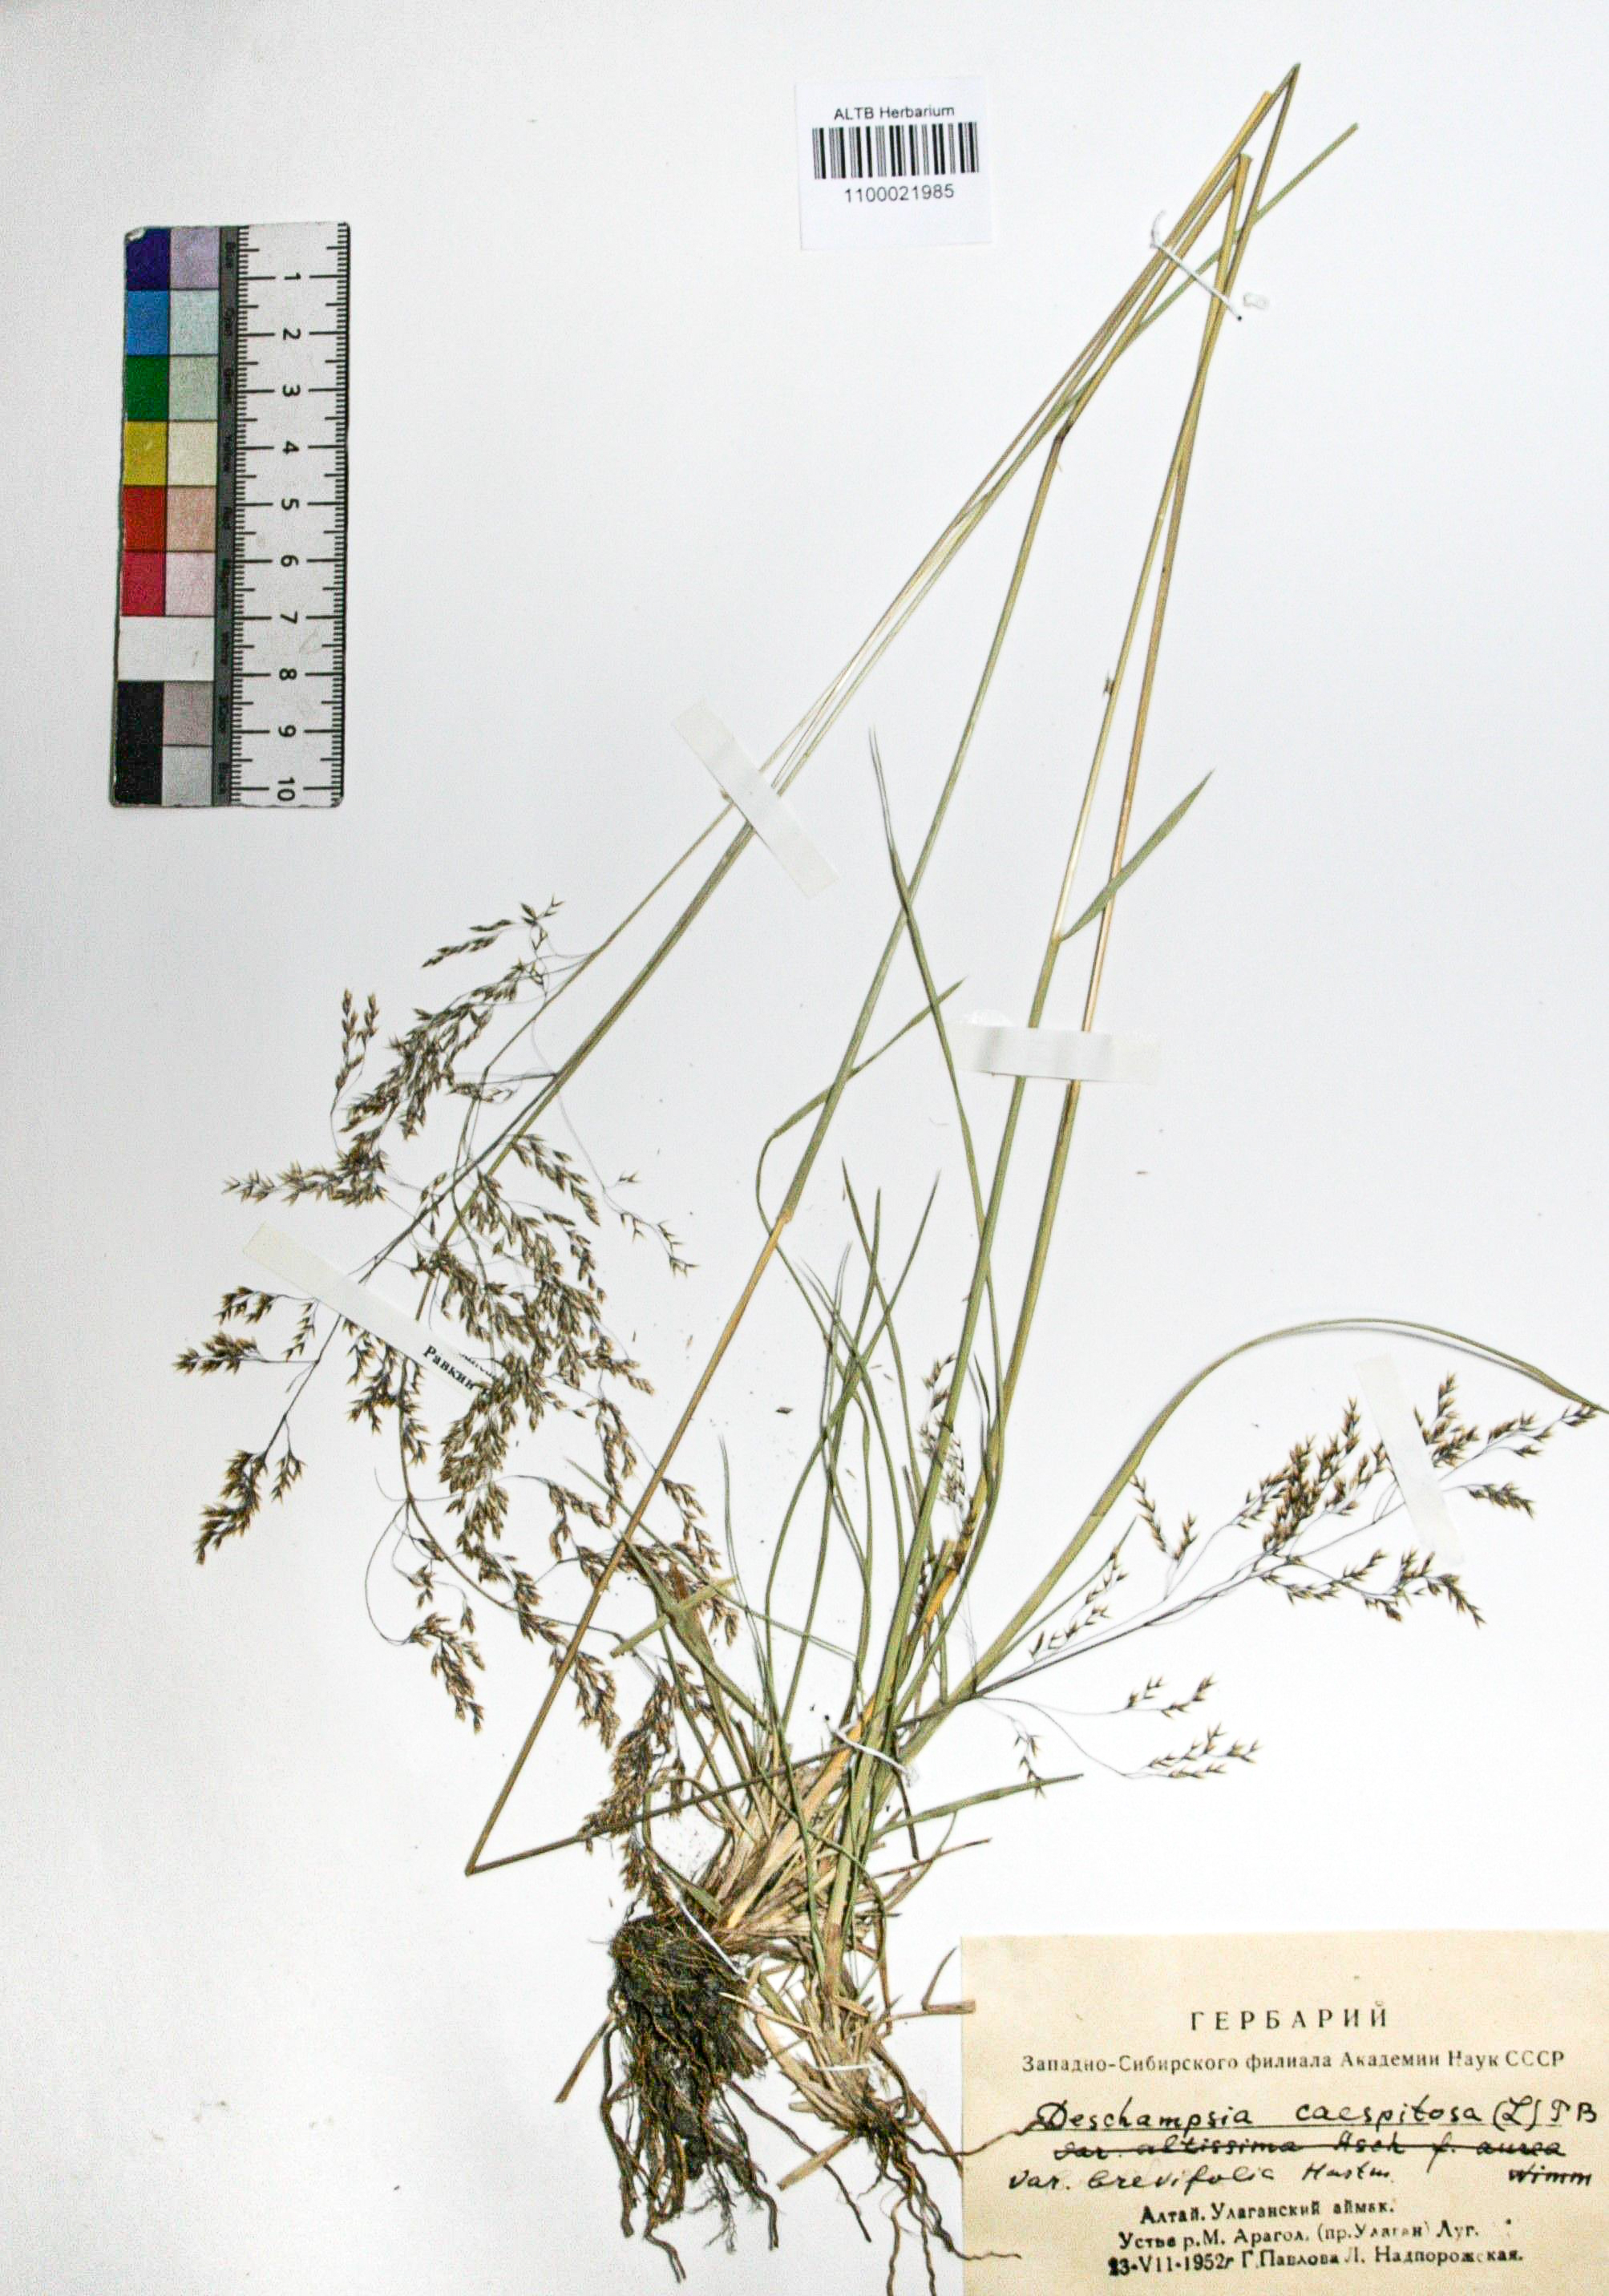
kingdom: Plantae
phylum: Tracheophyta
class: Liliopsida
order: Poales
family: Poaceae
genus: Deschampsia
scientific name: Deschampsia cespitosa
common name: Tufted hair-grass
